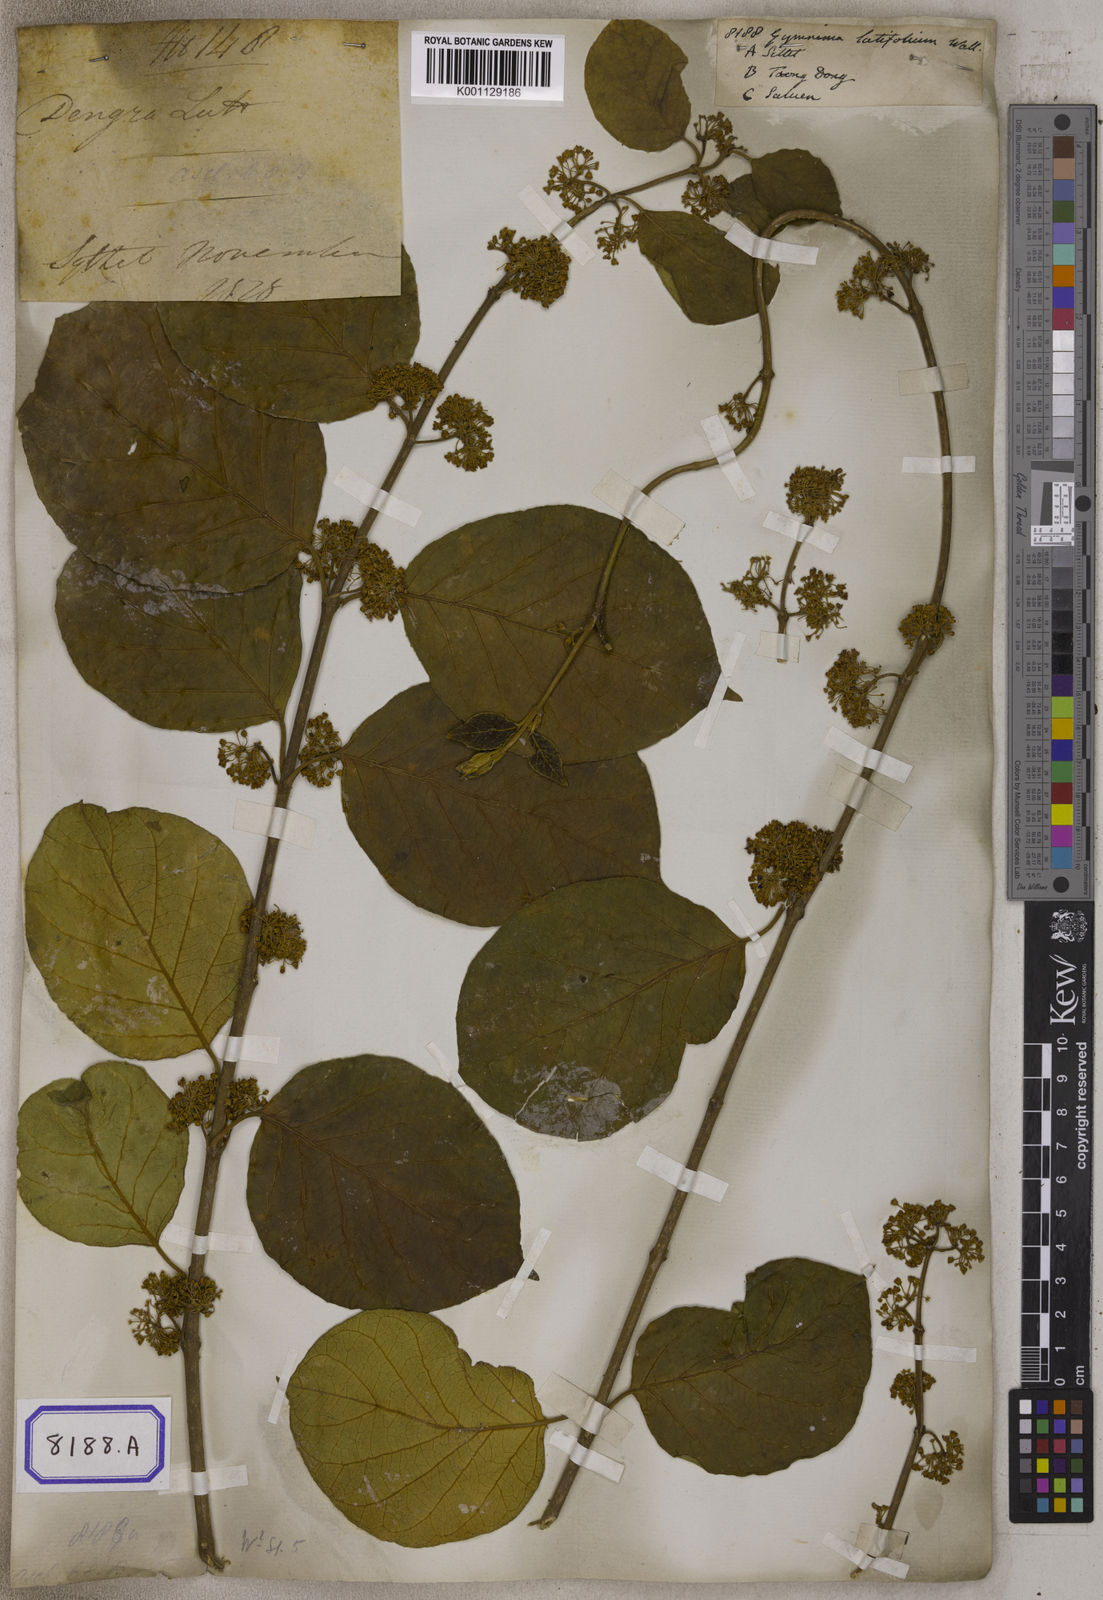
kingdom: Plantae
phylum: Tracheophyta
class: Magnoliopsida
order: Gentianales
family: Apocynaceae
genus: Gymnema
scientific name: Gymnema latifolium
